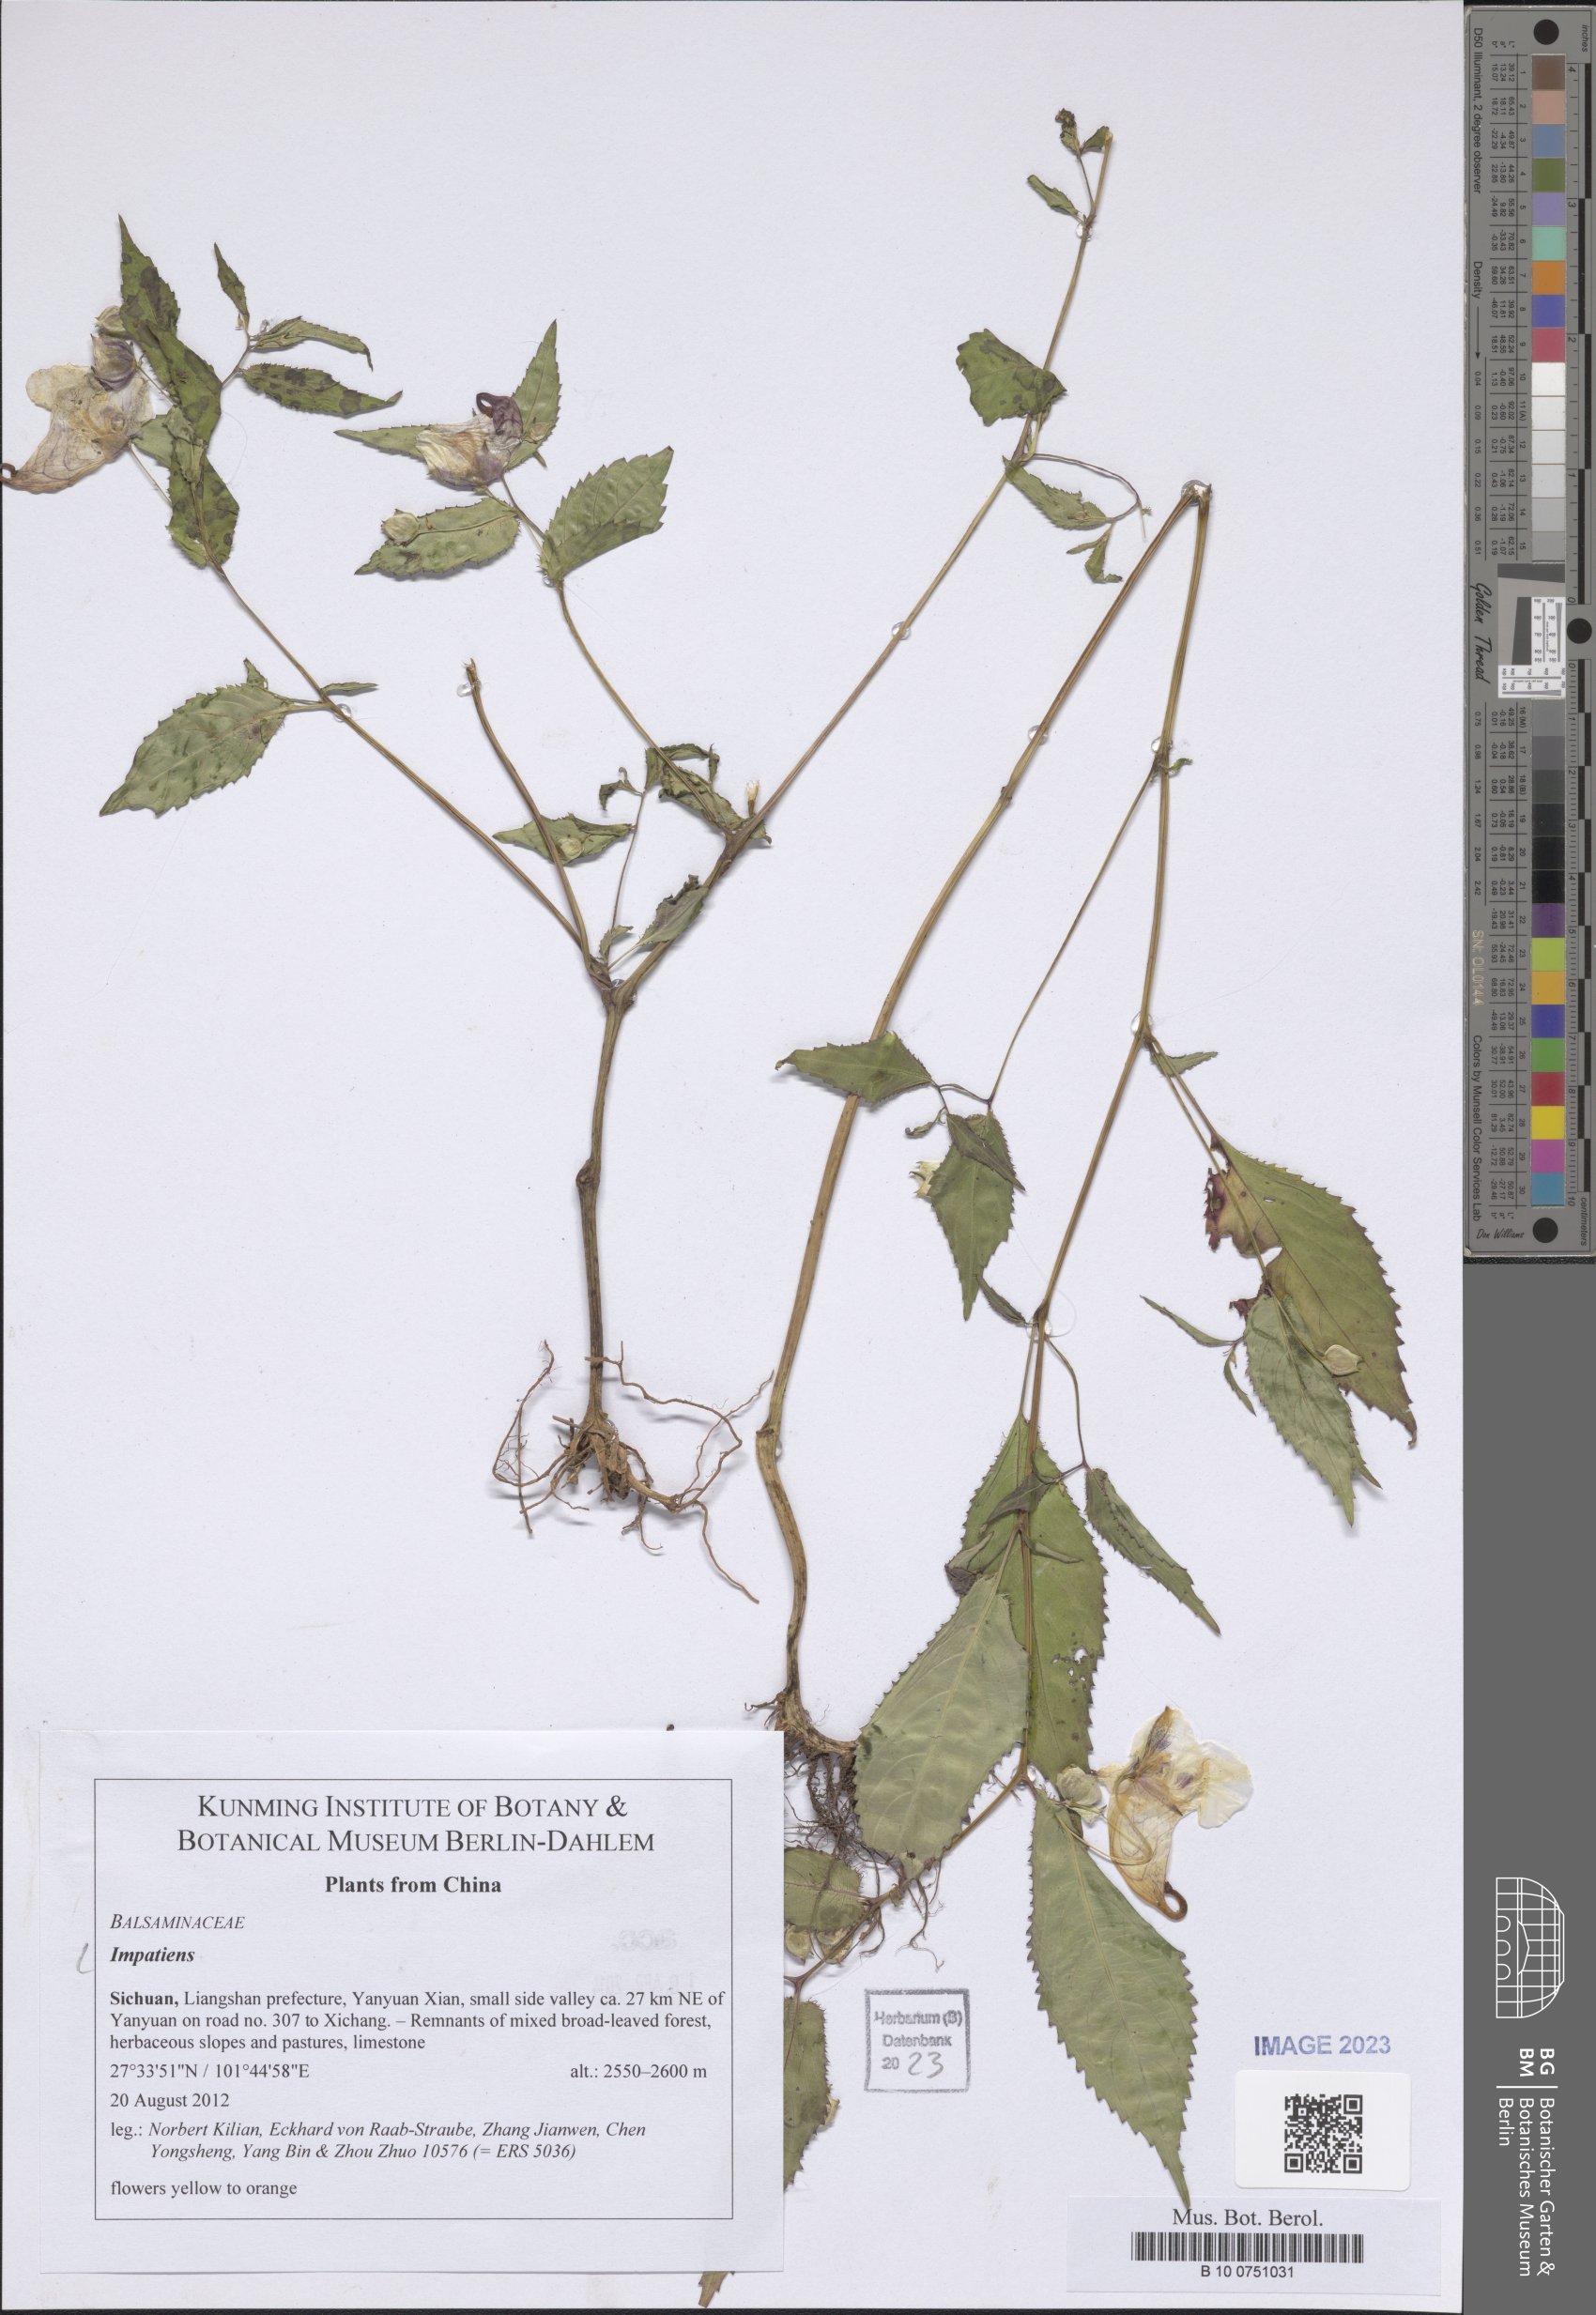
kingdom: Plantae
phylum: Tracheophyta
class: Magnoliopsida
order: Ericales
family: Balsaminaceae
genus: Impatiens
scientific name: Impatiens
